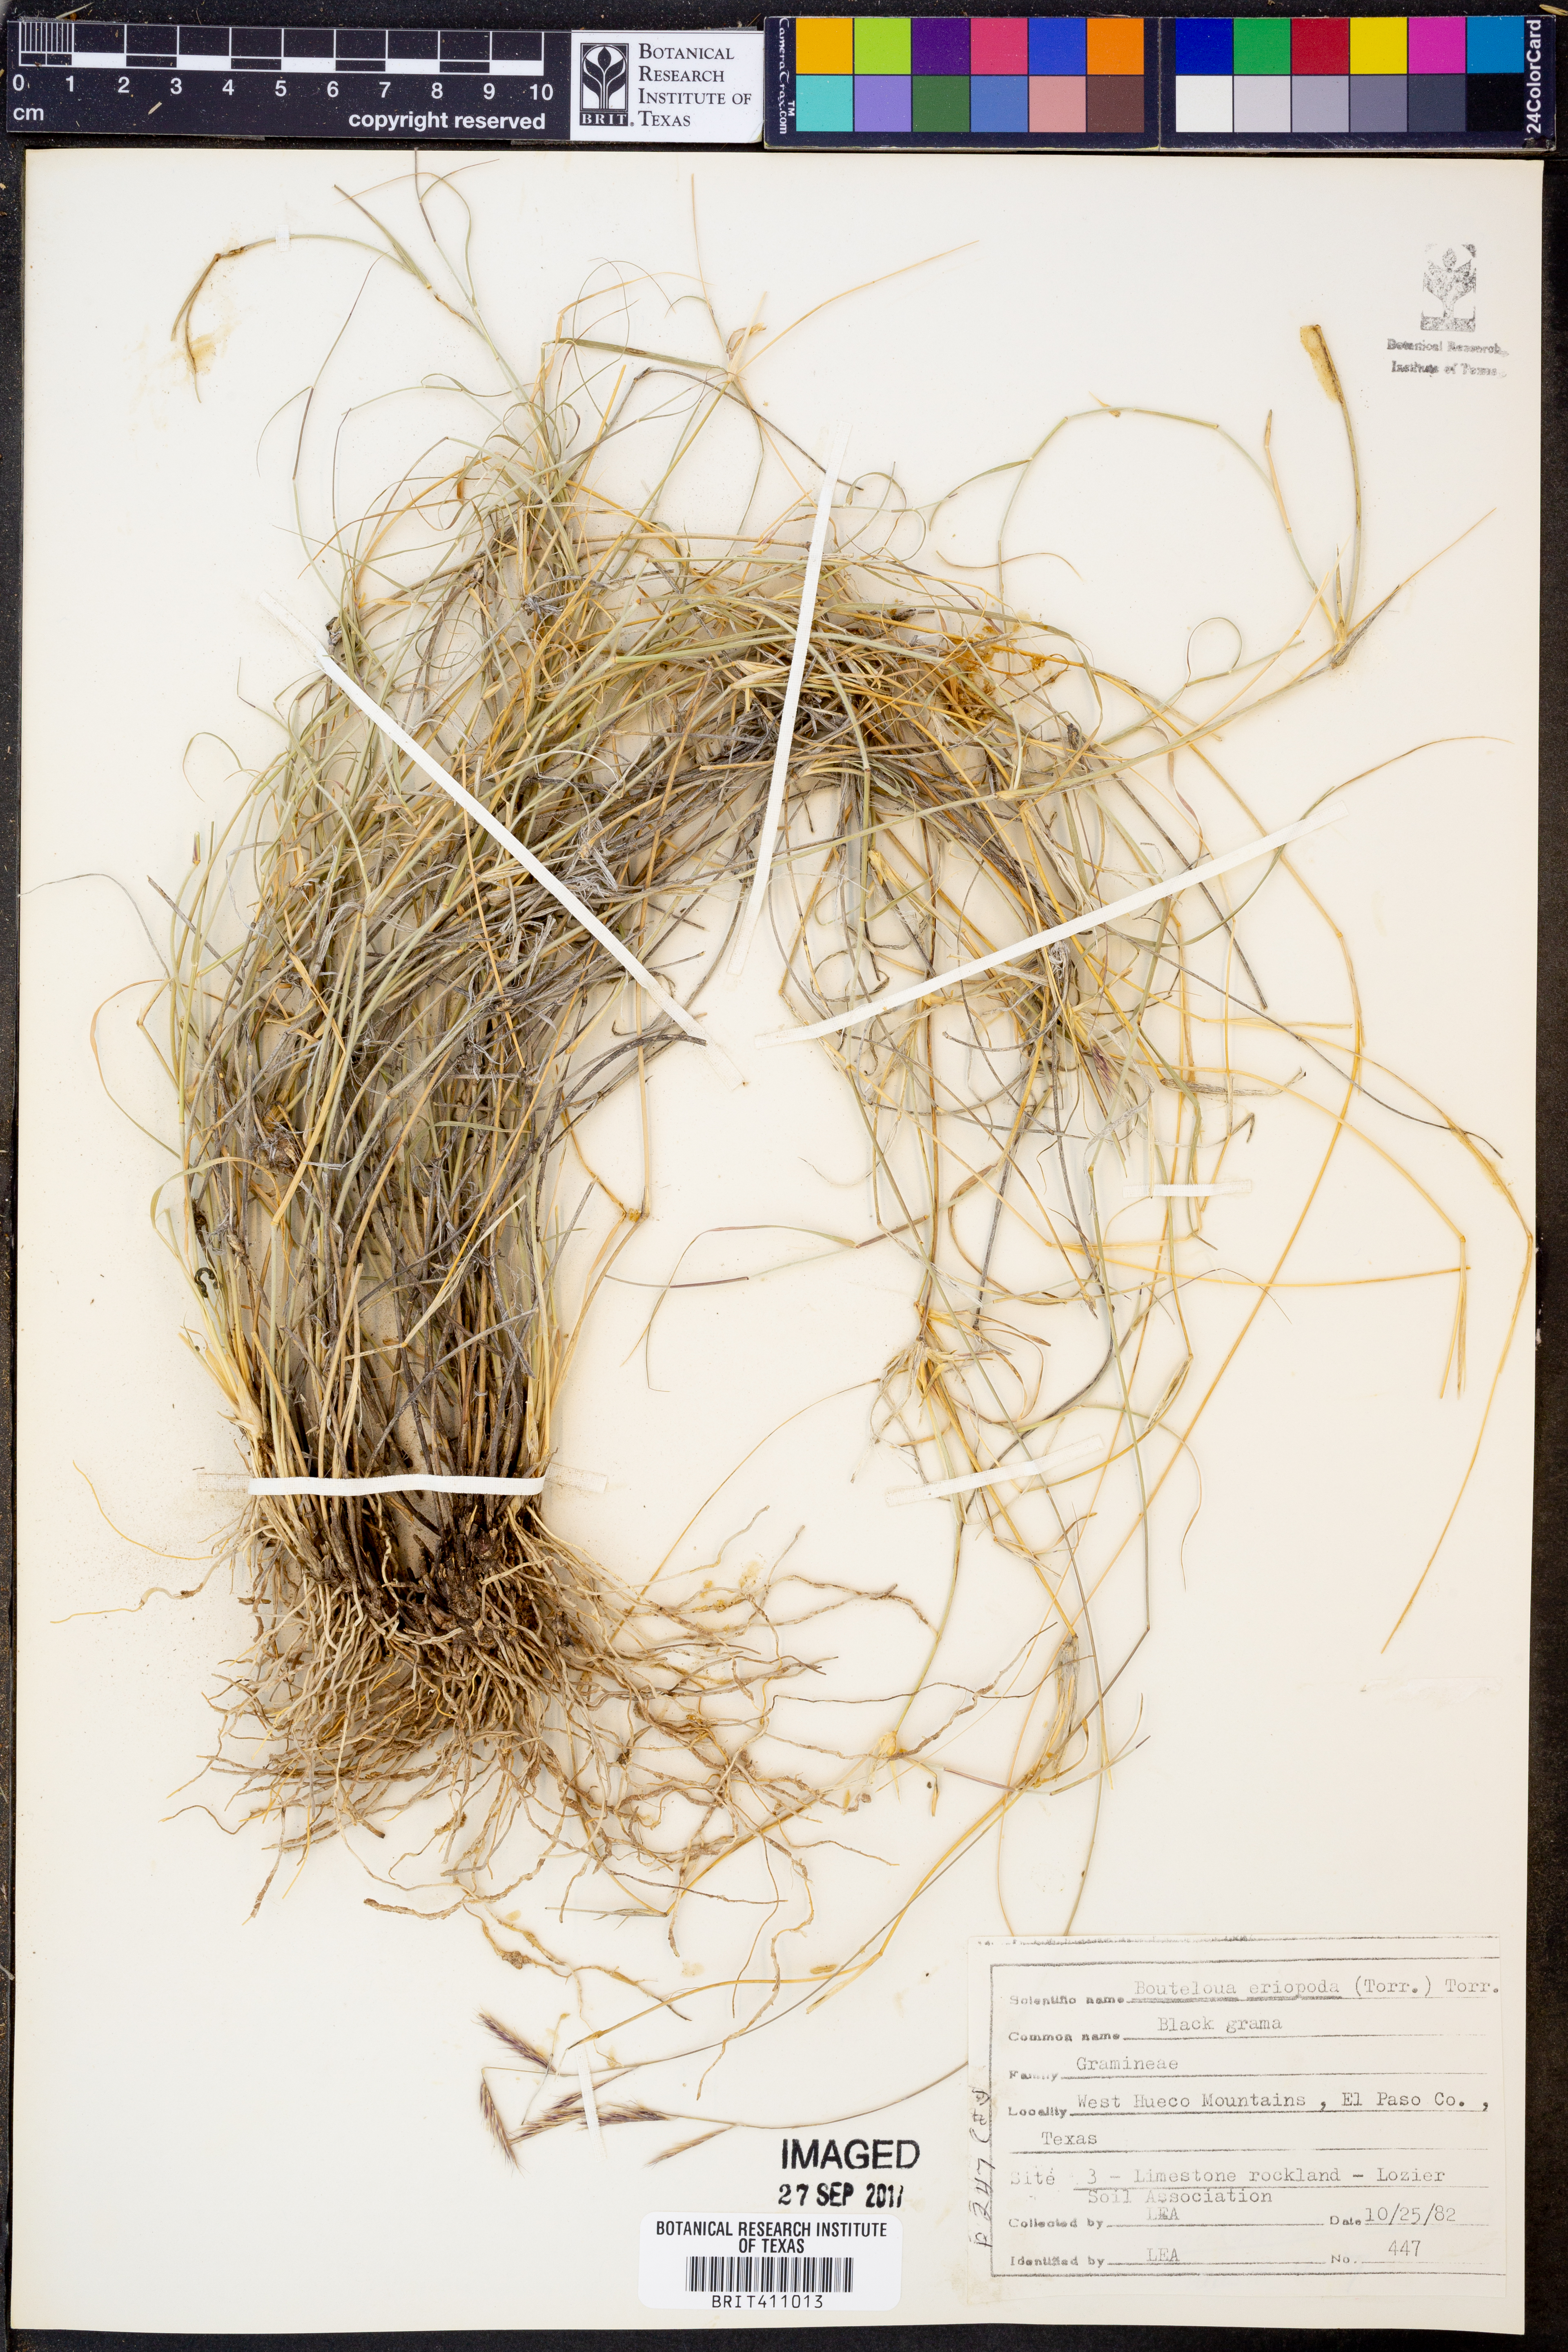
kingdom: Plantae
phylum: Tracheophyta
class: Liliopsida
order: Poales
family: Poaceae
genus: Bouteloua
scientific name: Bouteloua eriopoda
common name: Woolly foot grama
